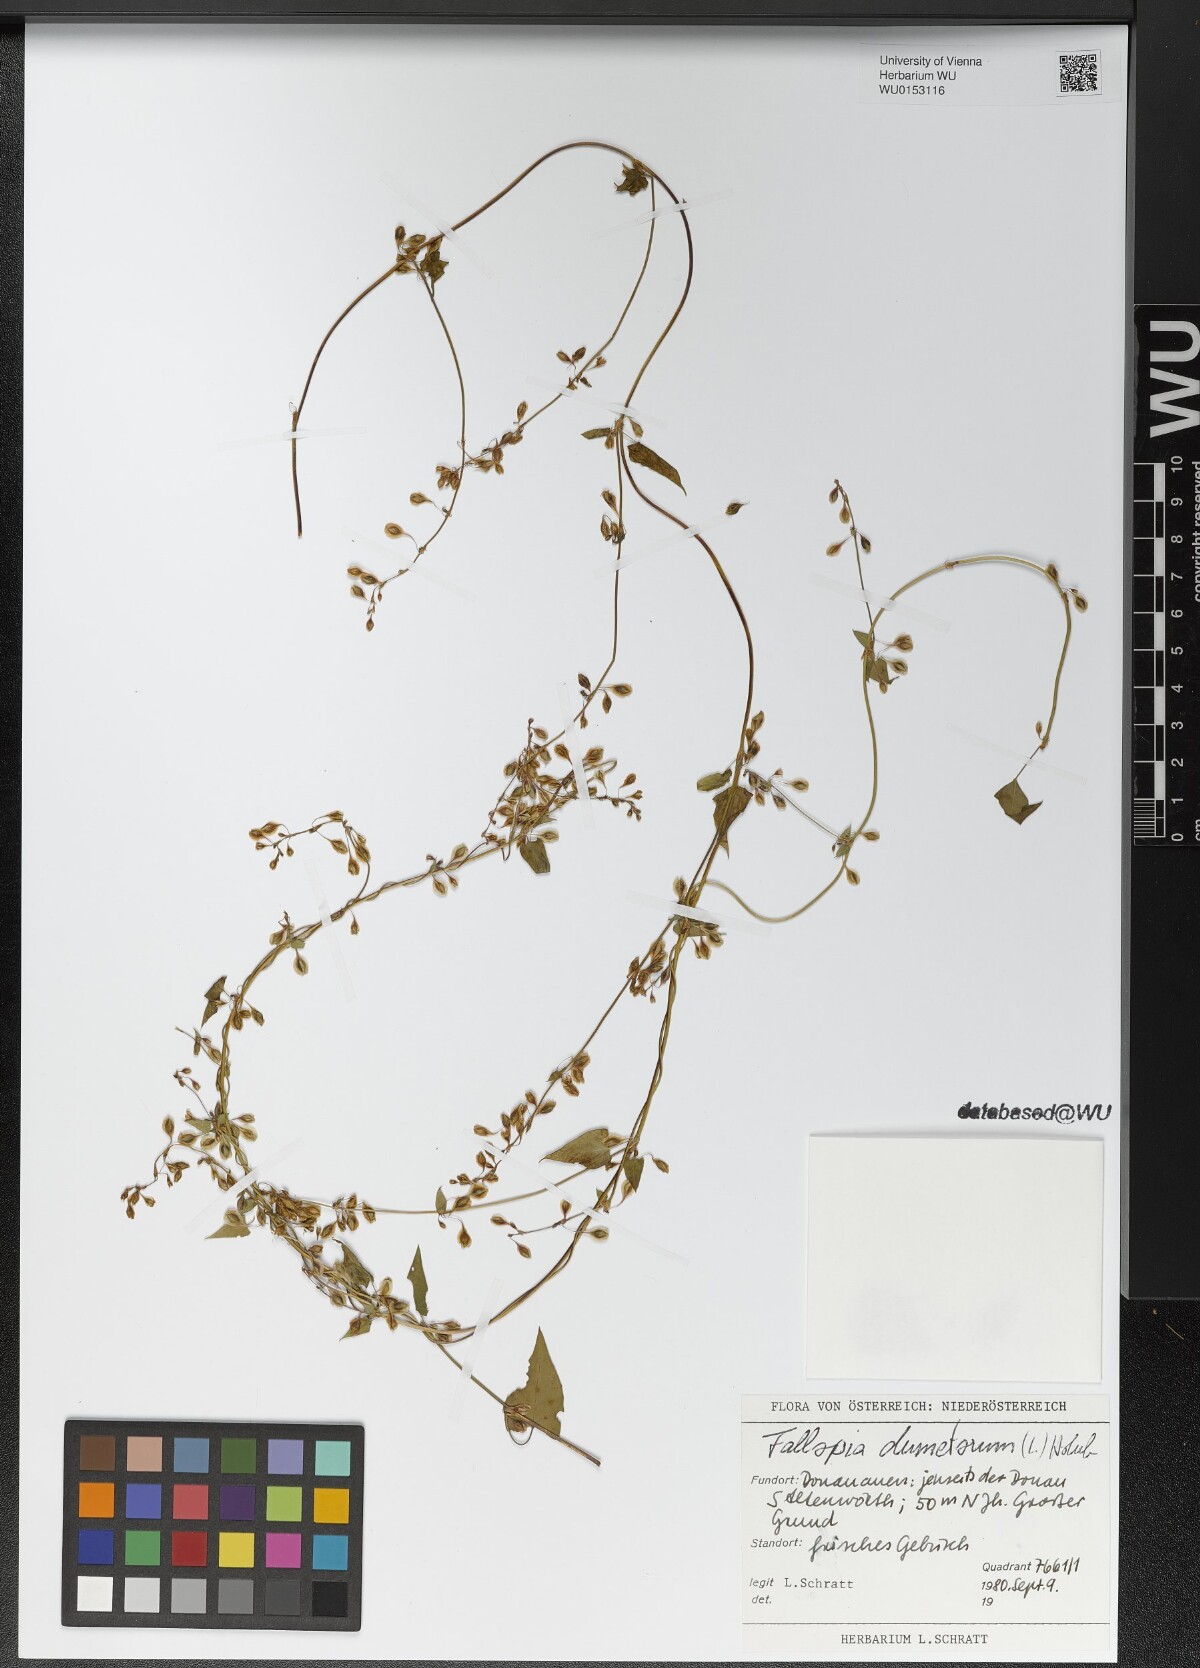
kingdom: Plantae
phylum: Tracheophyta
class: Magnoliopsida
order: Caryophyllales
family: Polygonaceae
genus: Fallopia
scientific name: Fallopia dumetorum
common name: Copse-bindweed
